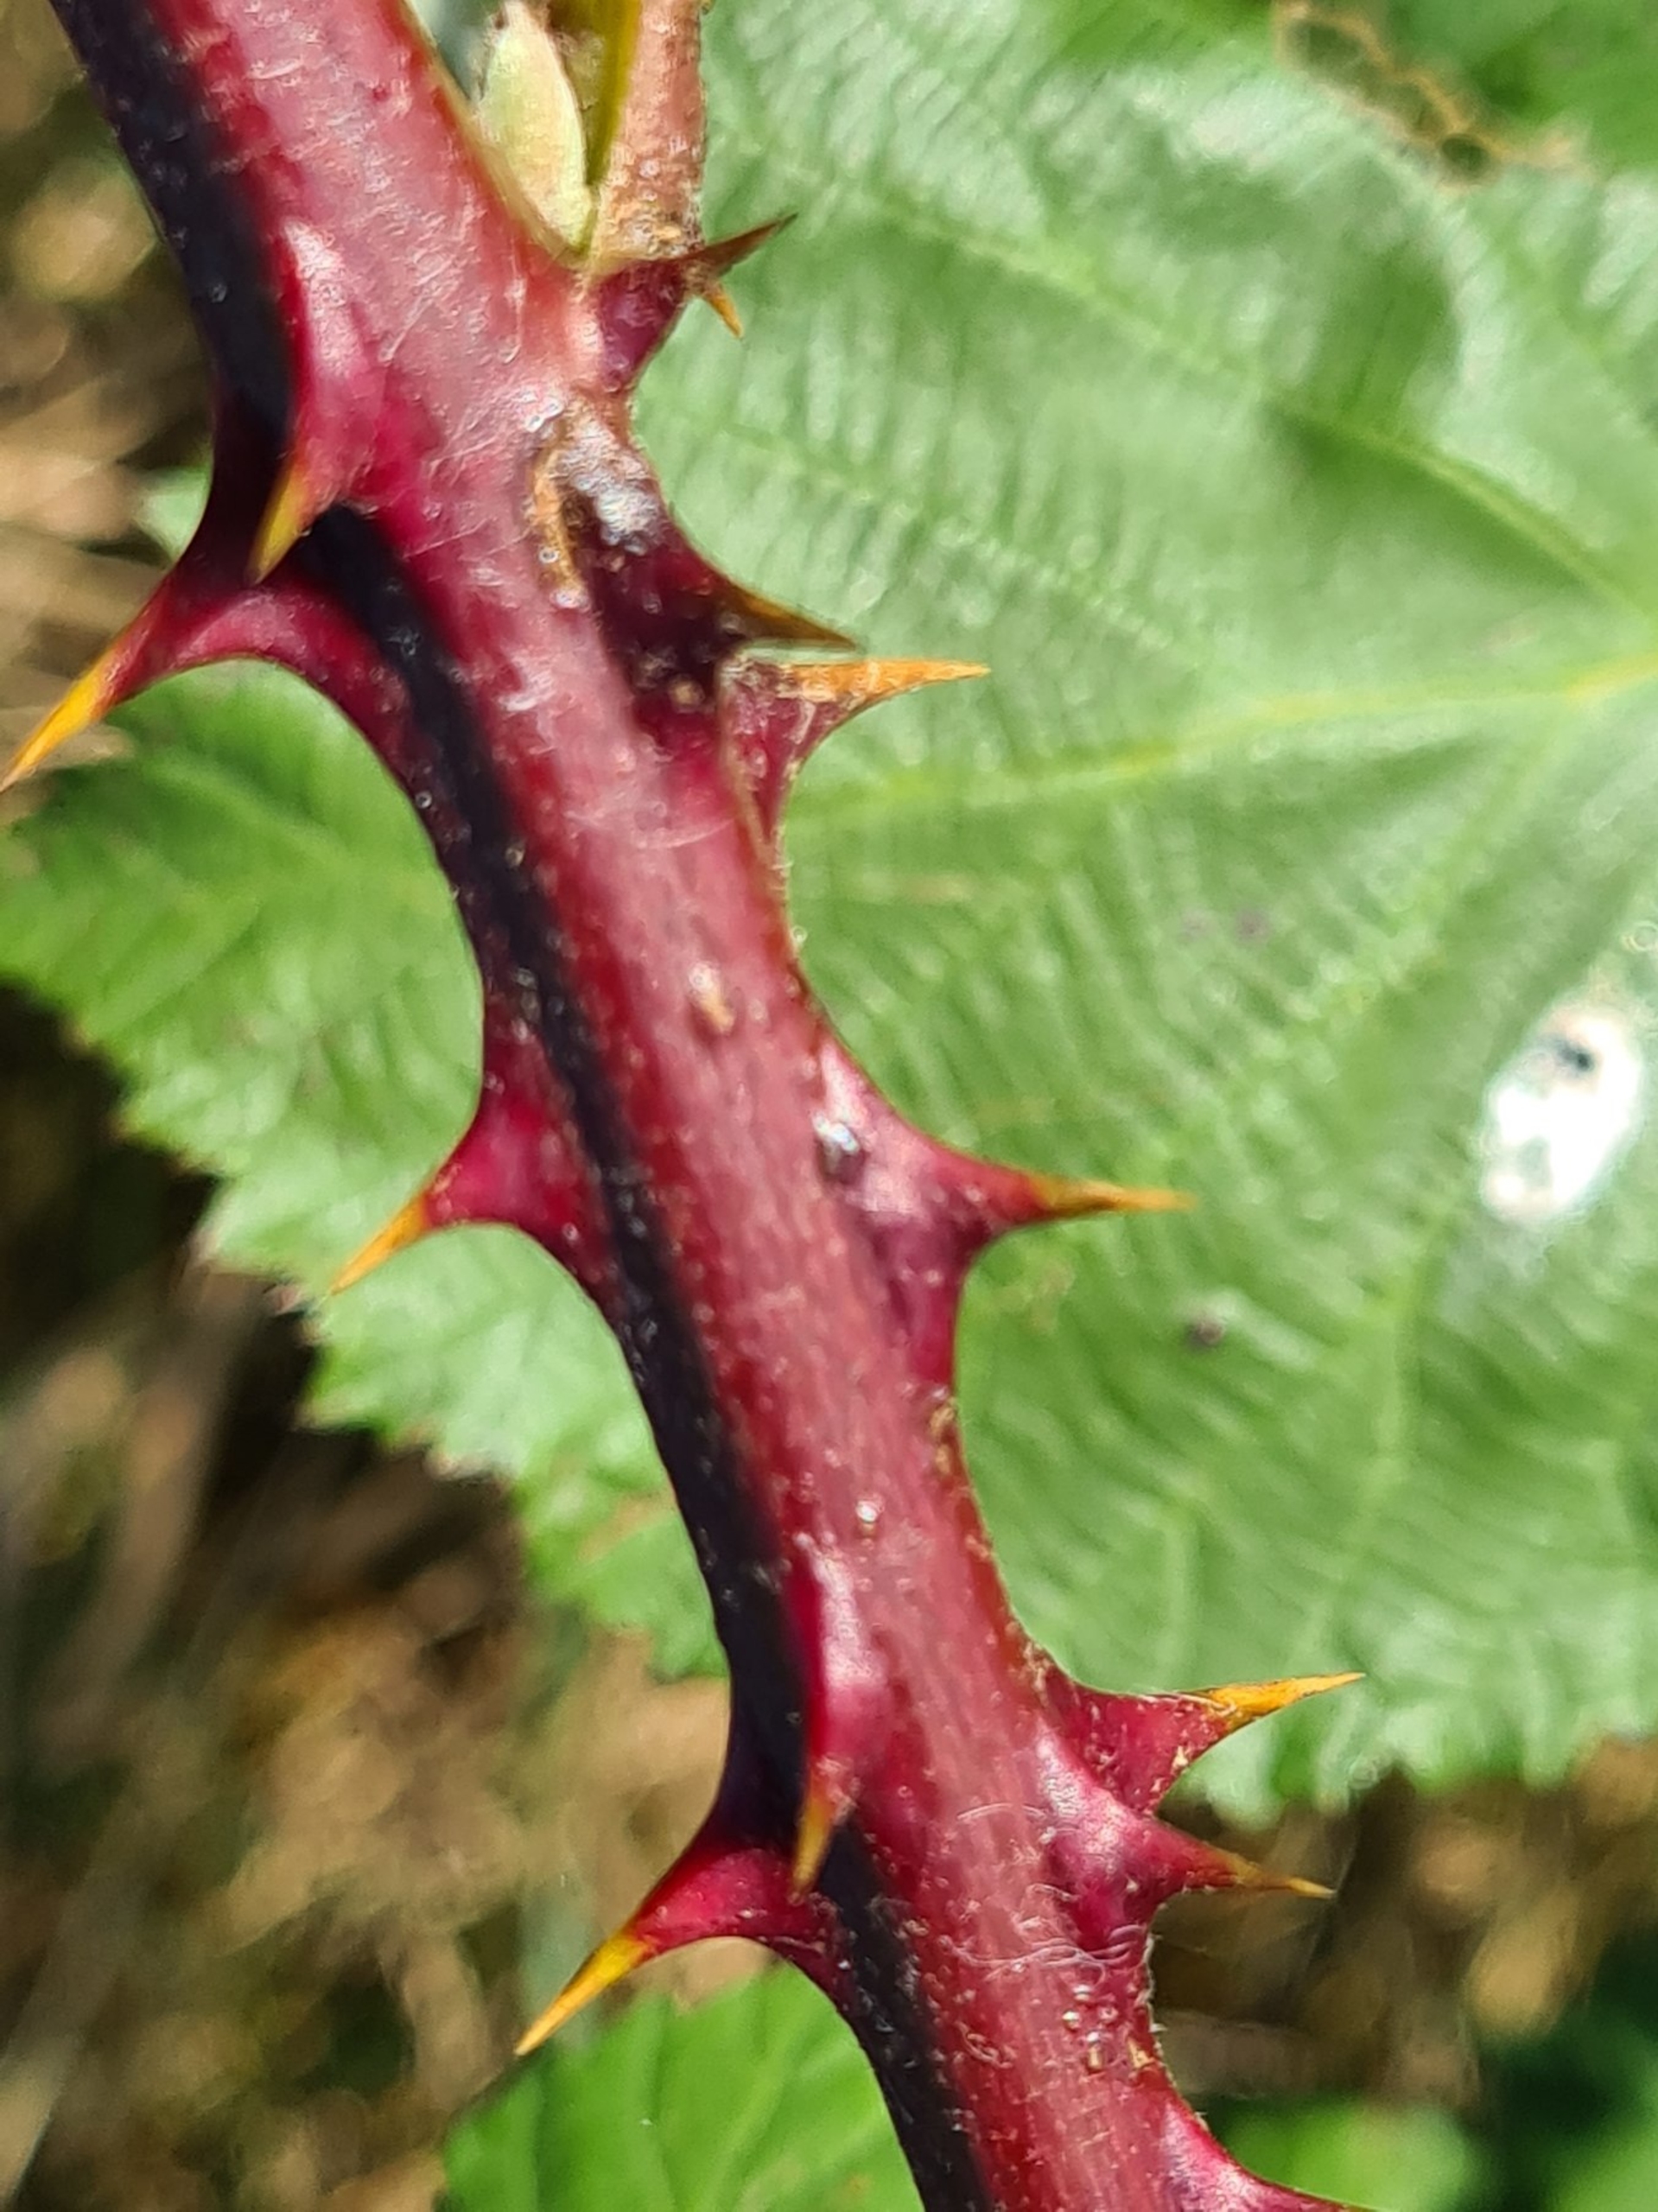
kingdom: Plantae
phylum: Tracheophyta
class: Magnoliopsida
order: Rosales
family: Rosaceae
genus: Rubus
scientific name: Rubus armeniacus
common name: Armensk brombær
